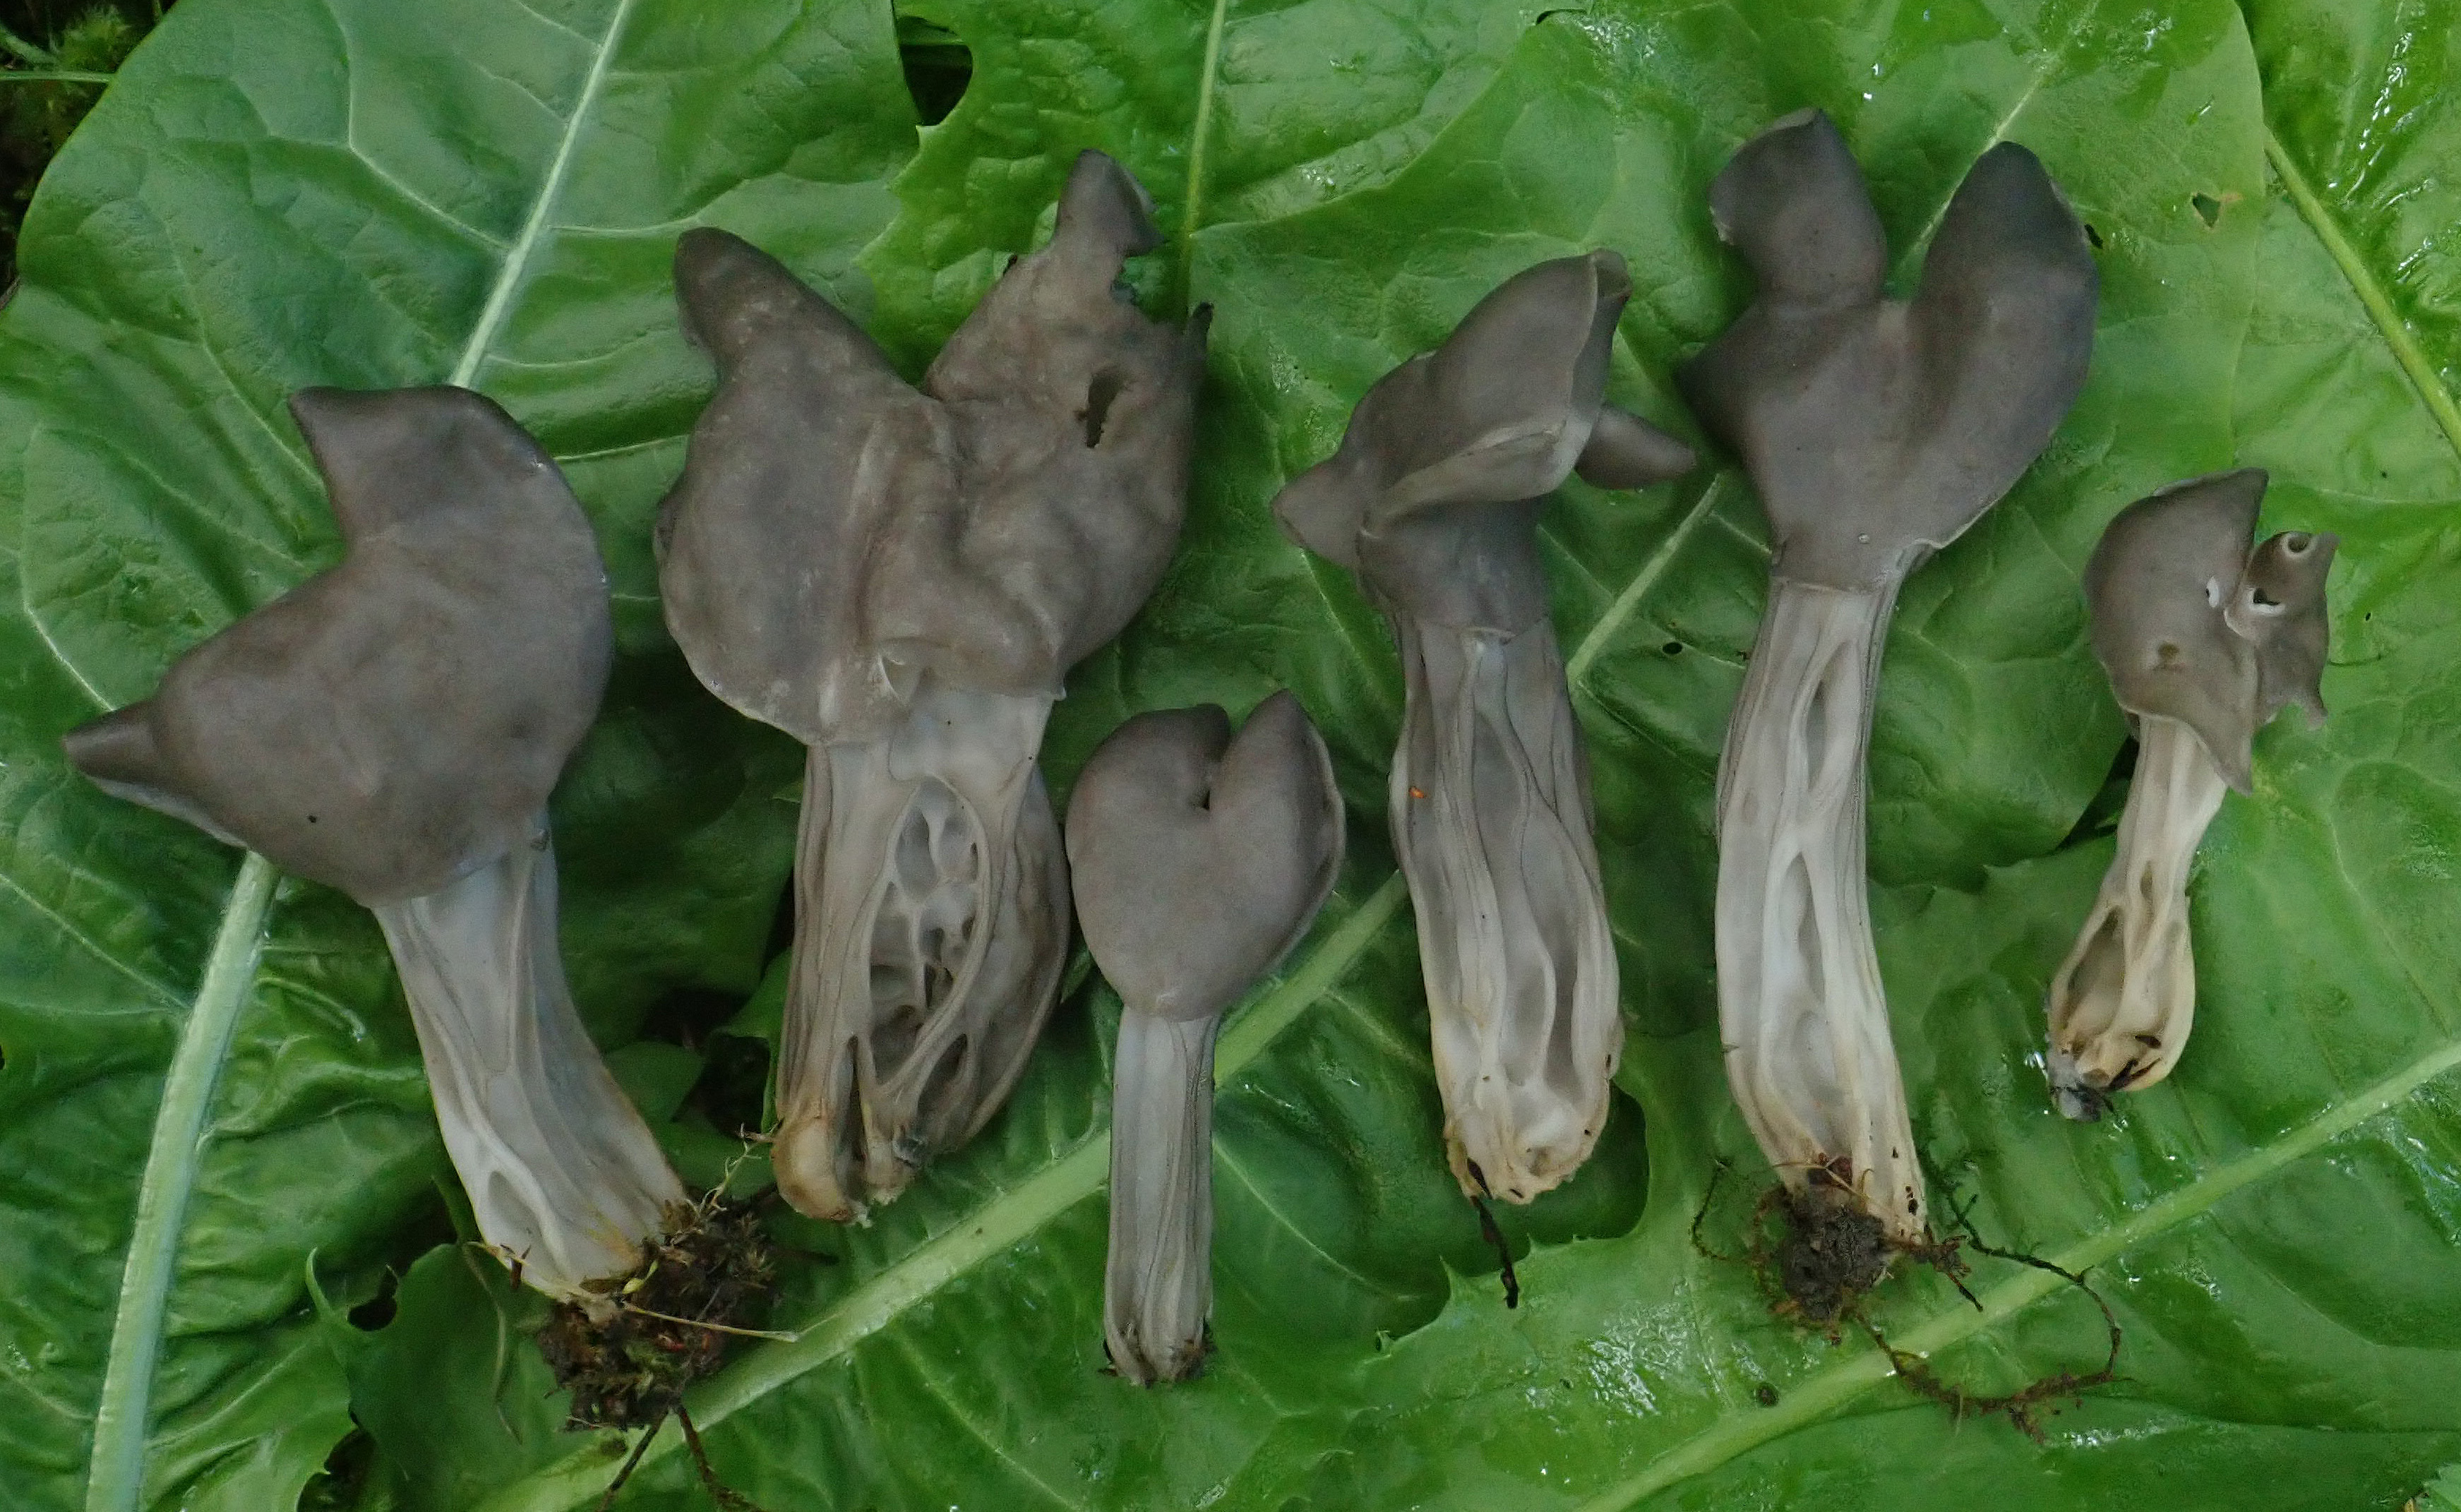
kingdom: Fungi
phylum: Ascomycota
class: Pezizomycetes
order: Pezizales
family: Helvellaceae
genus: Helvella
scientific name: Helvella crispa
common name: White saddle
